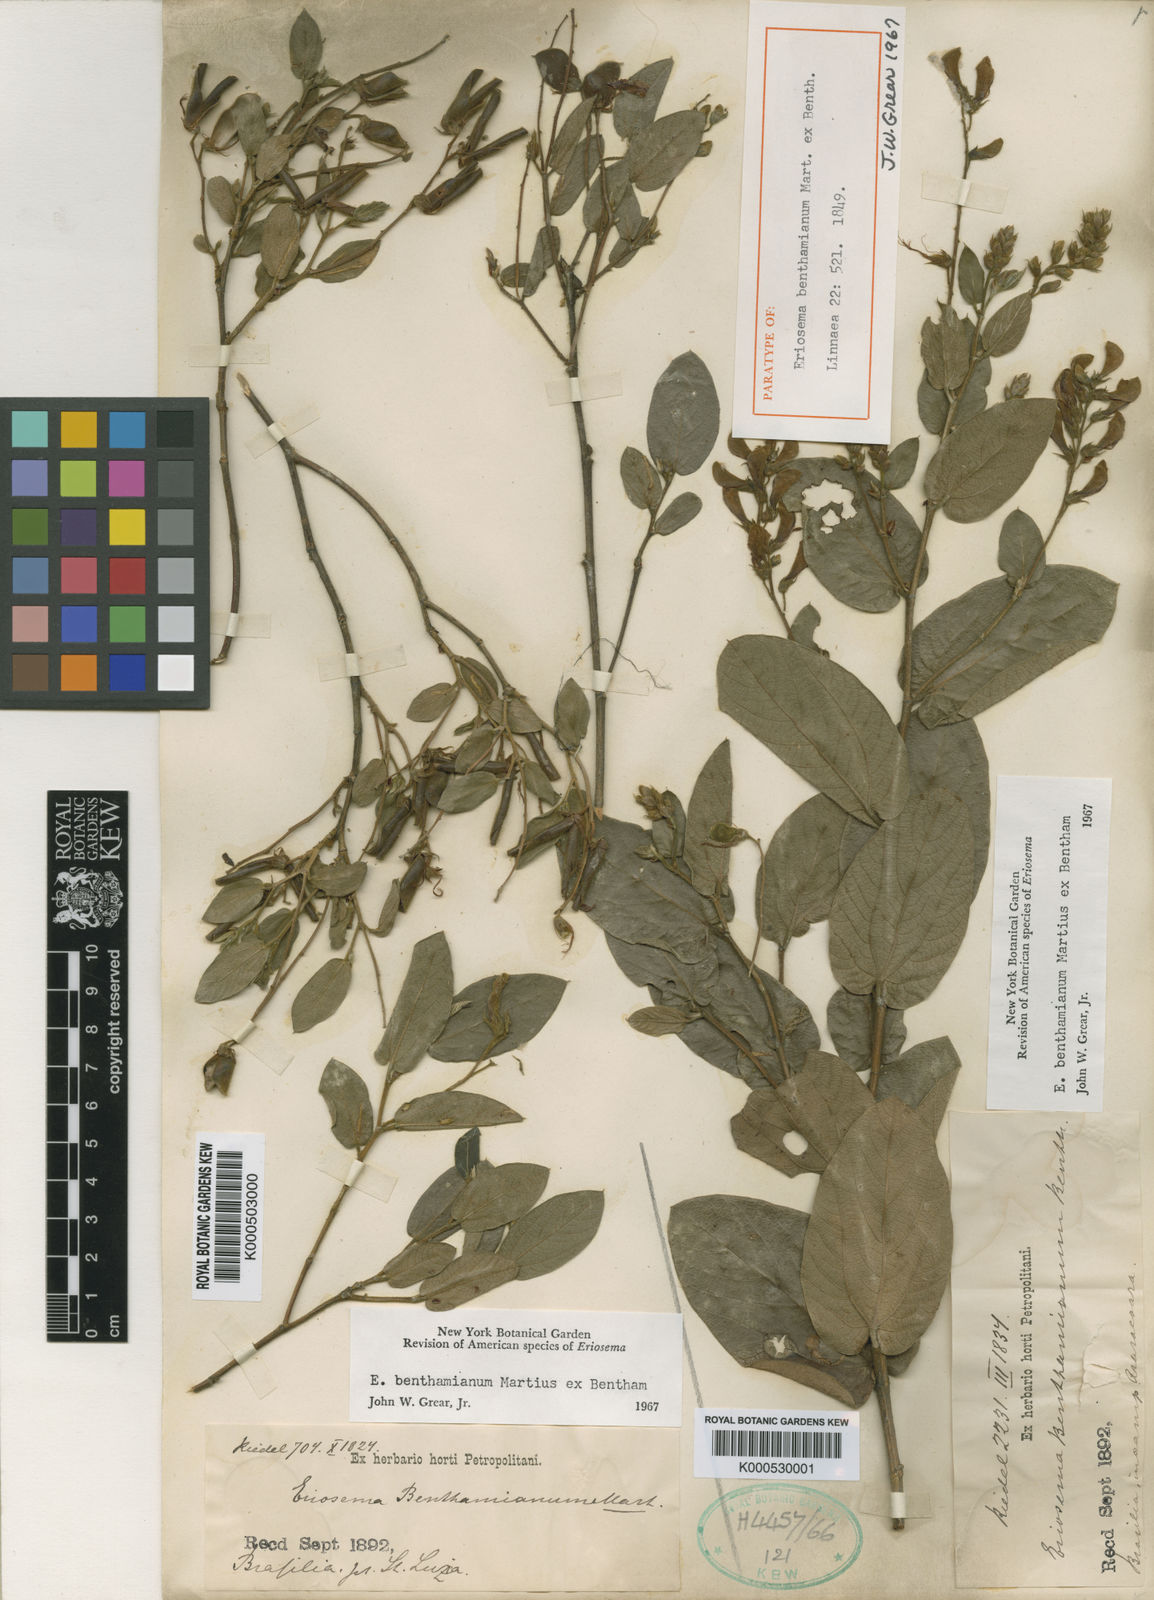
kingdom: Plantae
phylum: Tracheophyta
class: Magnoliopsida
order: Fabales
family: Fabaceae
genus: Eriosema
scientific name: Eriosema benthamianum
